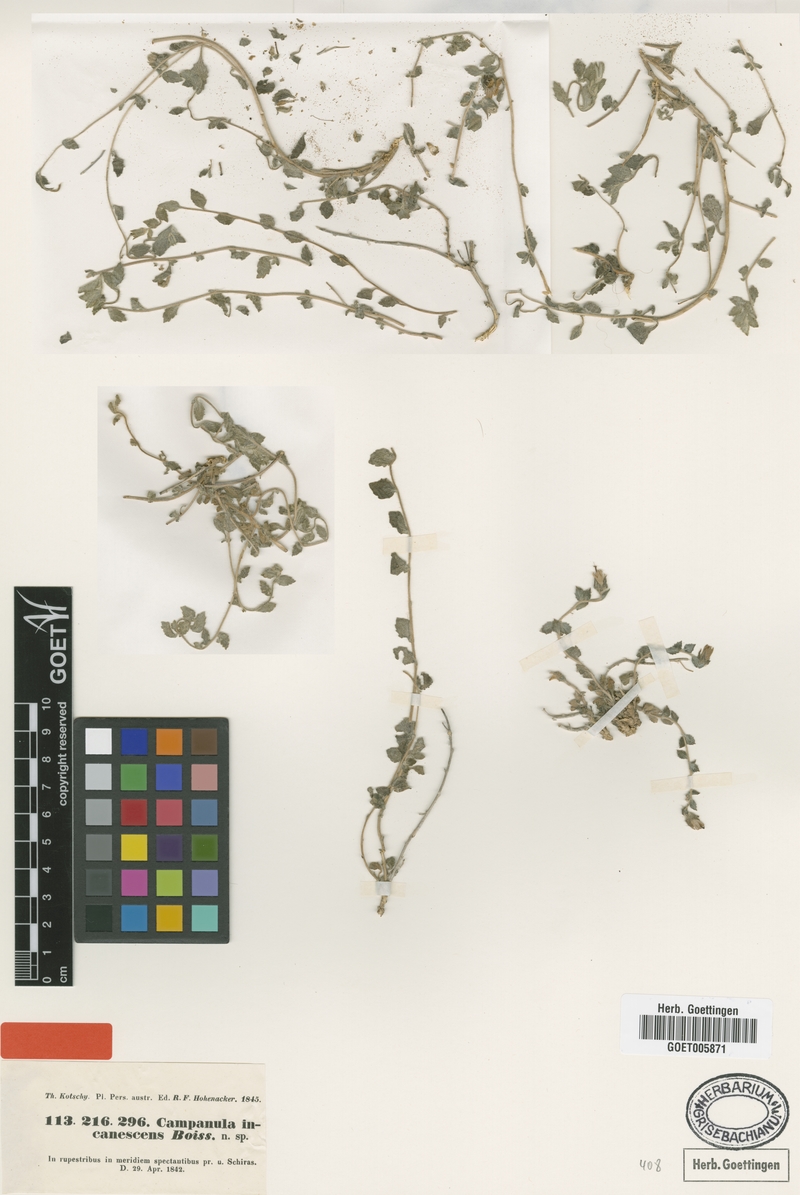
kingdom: Plantae
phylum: Tracheophyta
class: Magnoliopsida
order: Asterales
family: Campanulaceae
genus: Campanula
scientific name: Campanula incanescens
